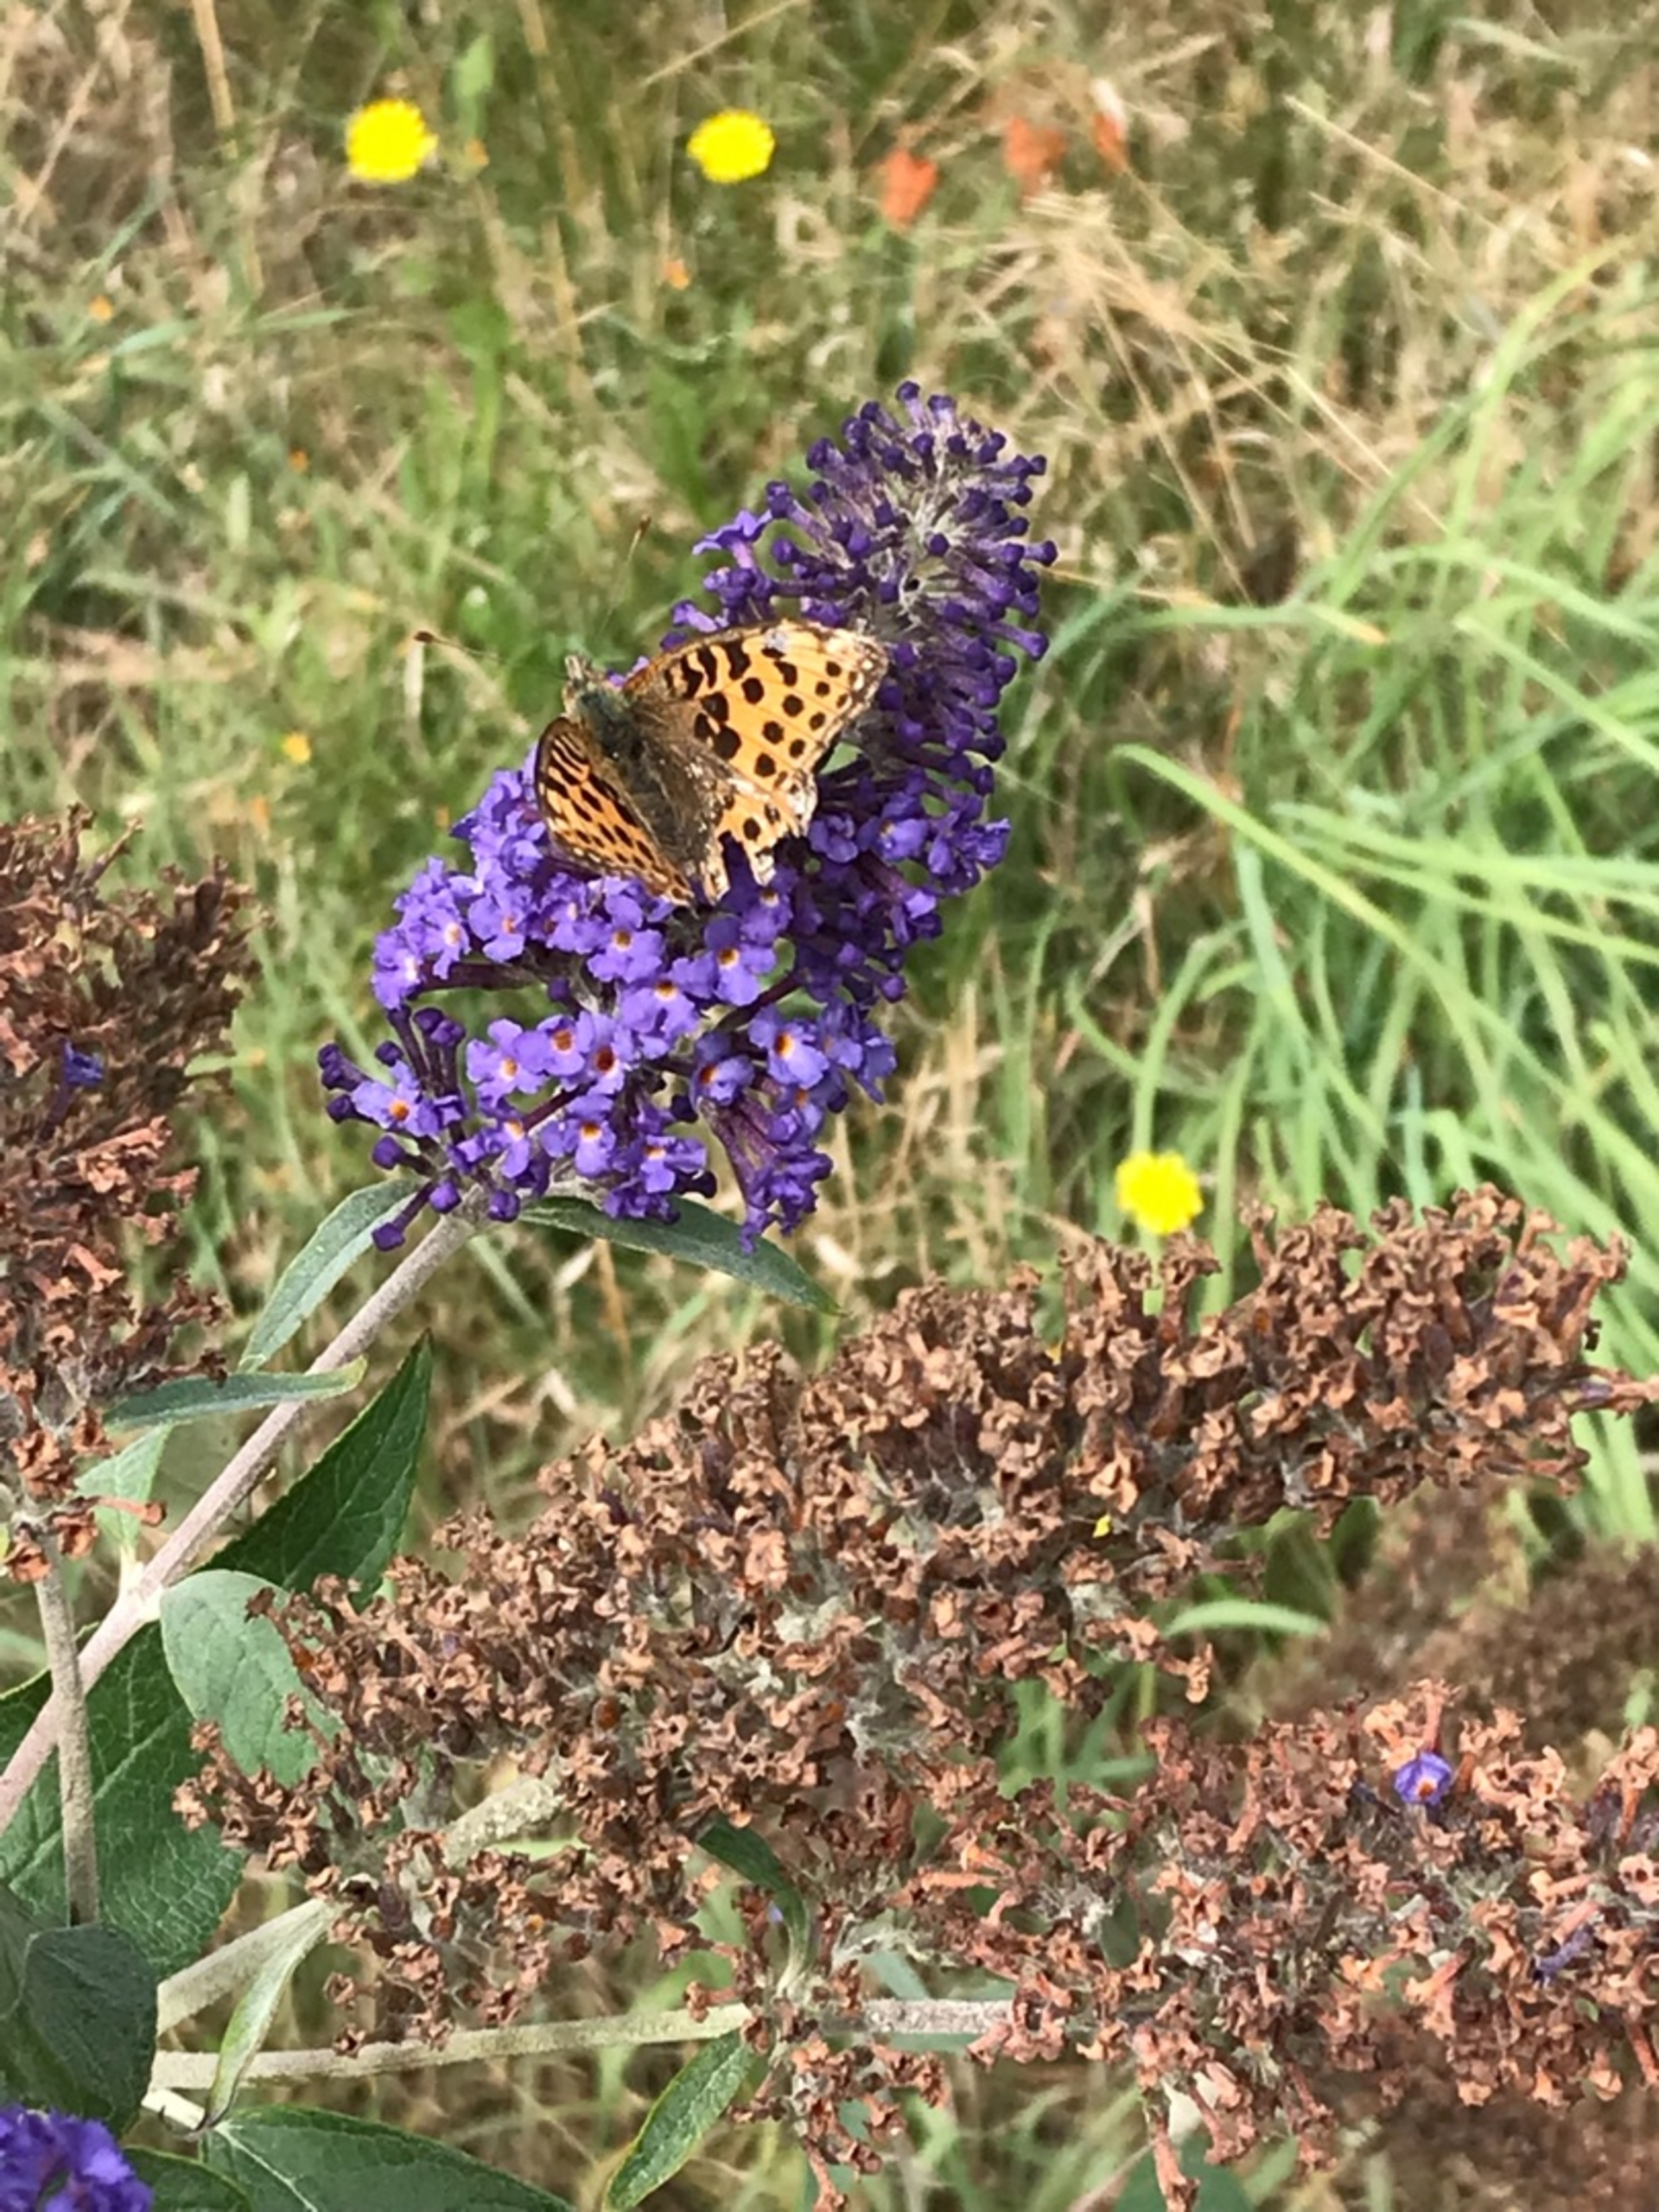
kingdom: Animalia
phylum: Arthropoda
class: Insecta
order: Lepidoptera
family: Nymphalidae
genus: Issoria
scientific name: Issoria lathonia
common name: Storplettet perlemorsommerfugl
